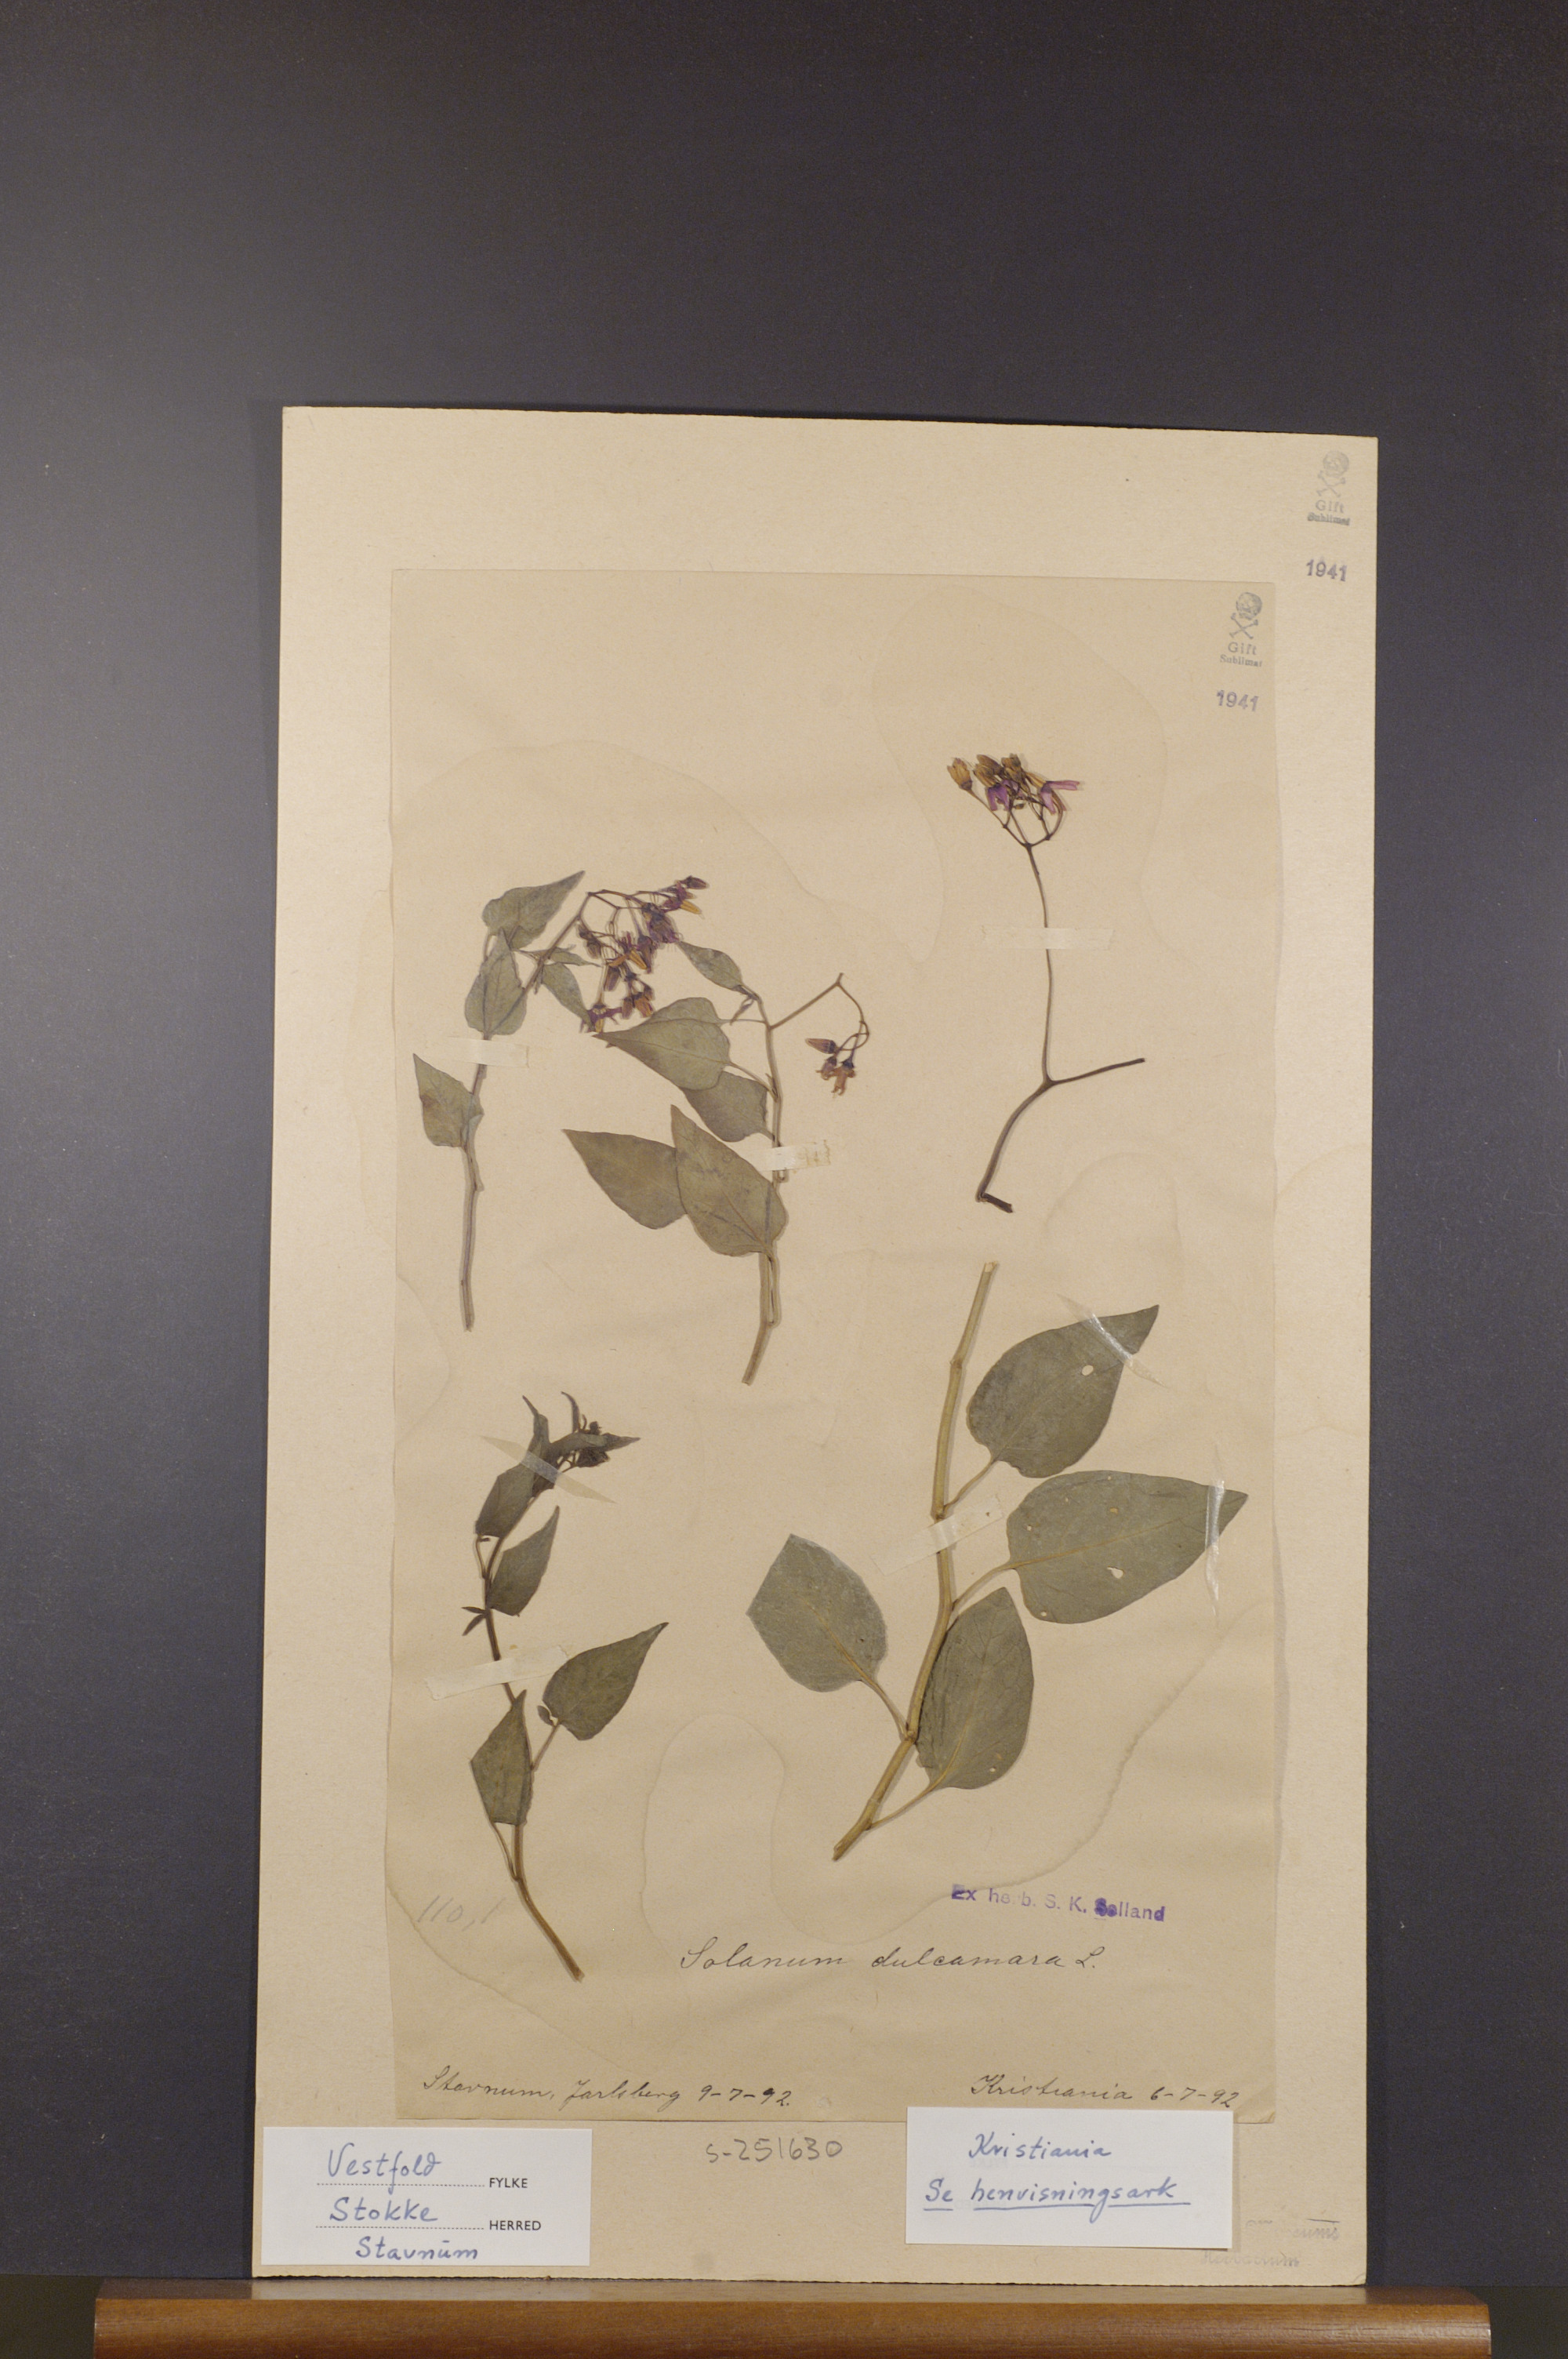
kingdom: Plantae
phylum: Tracheophyta
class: Magnoliopsida
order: Solanales
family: Solanaceae
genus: Solanum
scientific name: Solanum dulcamara
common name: Climbing nightshade
